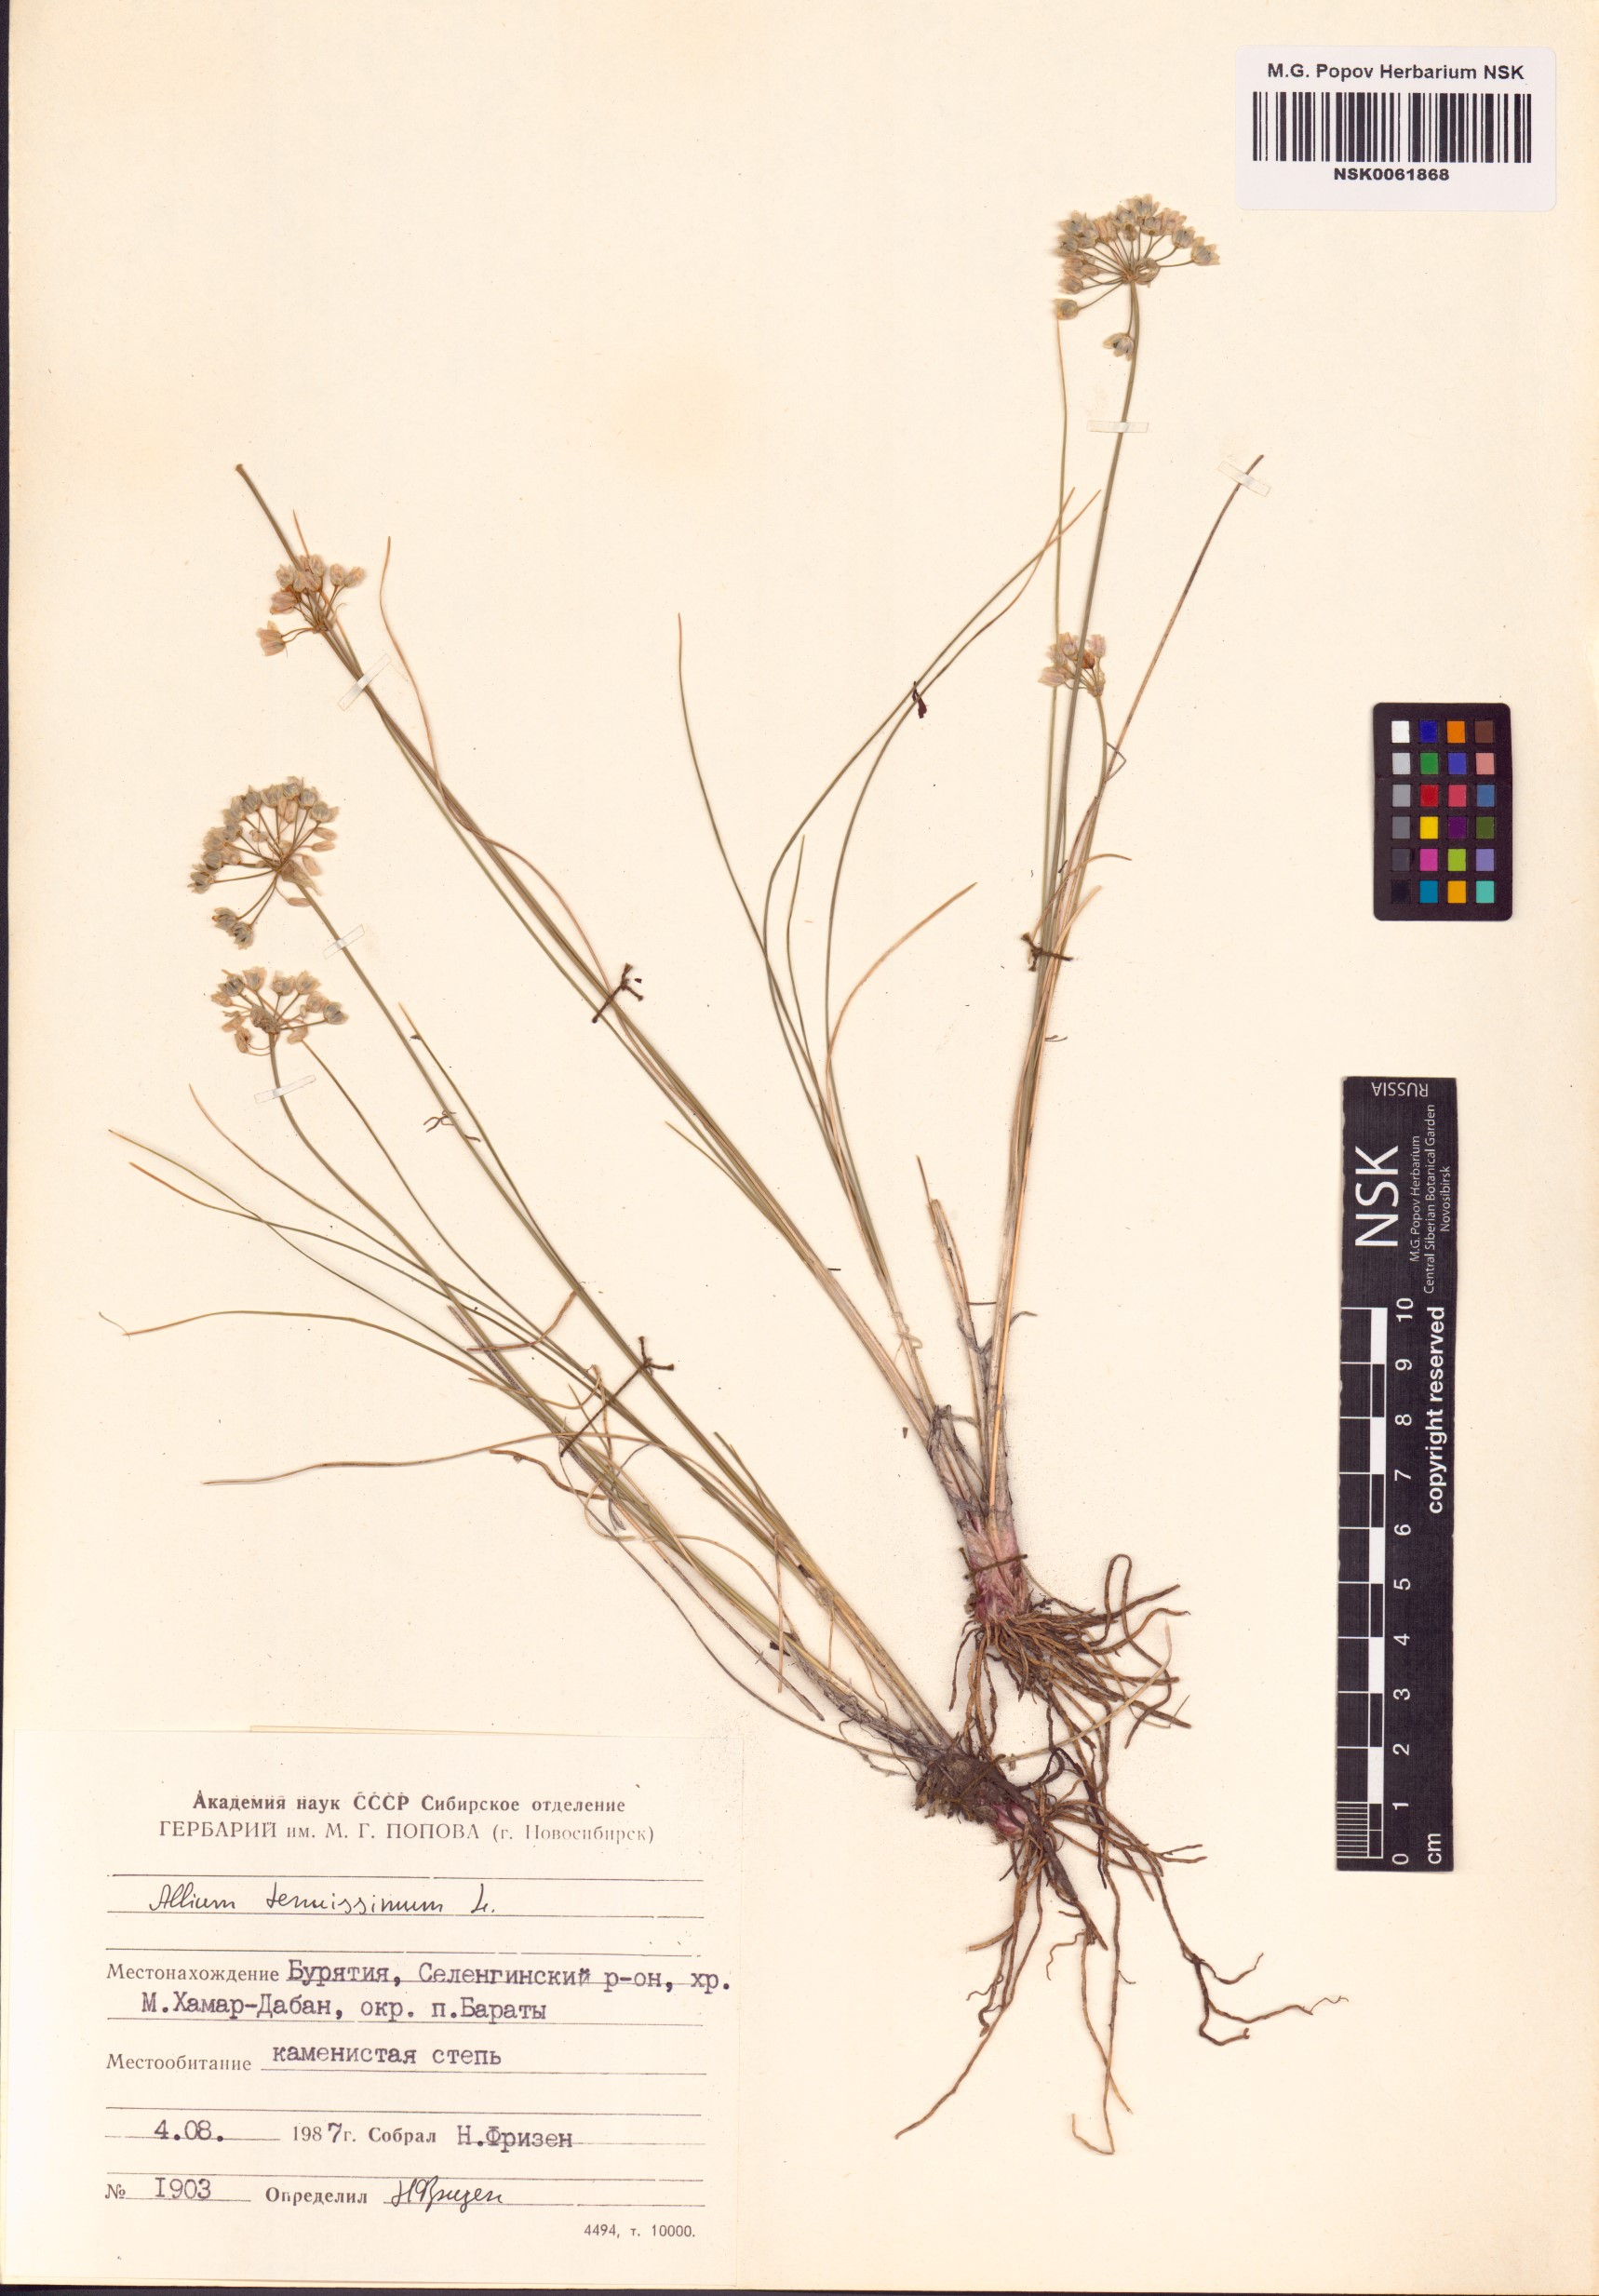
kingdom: Plantae
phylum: Tracheophyta
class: Liliopsida
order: Asparagales
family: Amaryllidaceae
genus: Allium
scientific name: Allium tenuissimum
